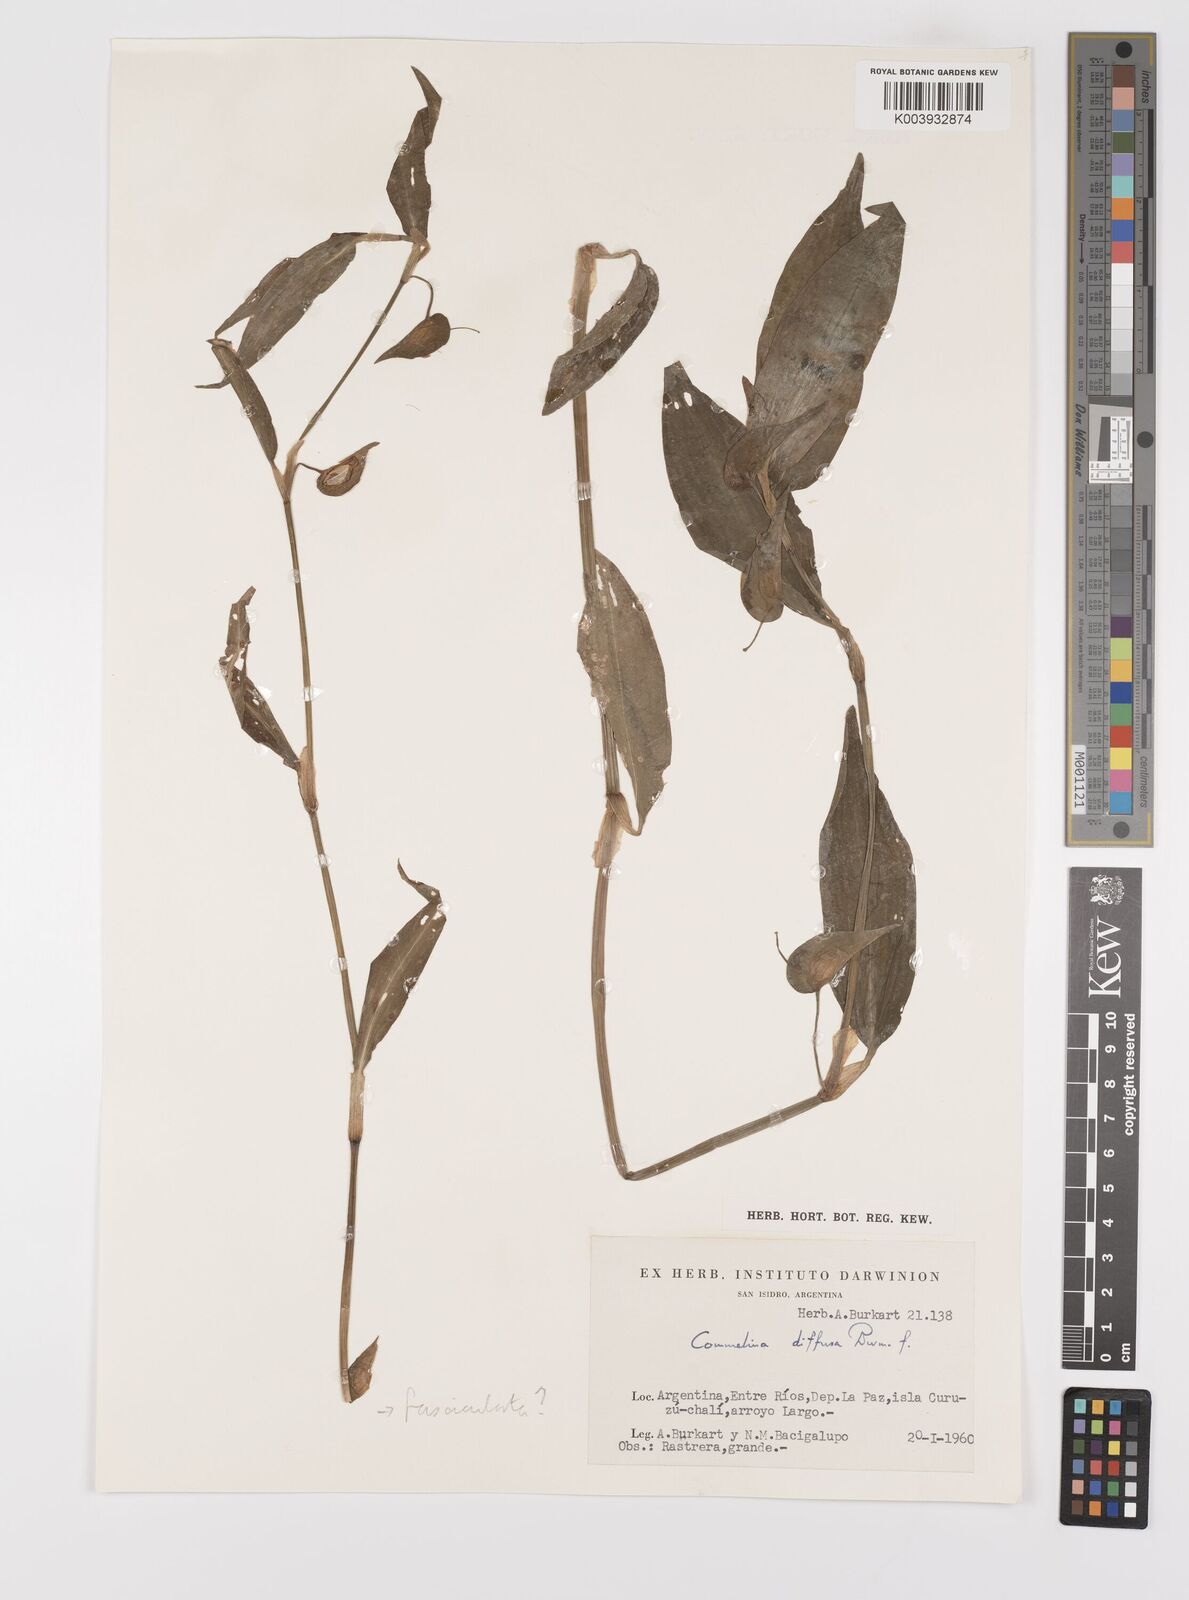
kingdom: Plantae
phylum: Tracheophyta
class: Liliopsida
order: Commelinales
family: Commelinaceae
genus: Commelina
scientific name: Commelina diffusa
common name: Climbing dayflower
